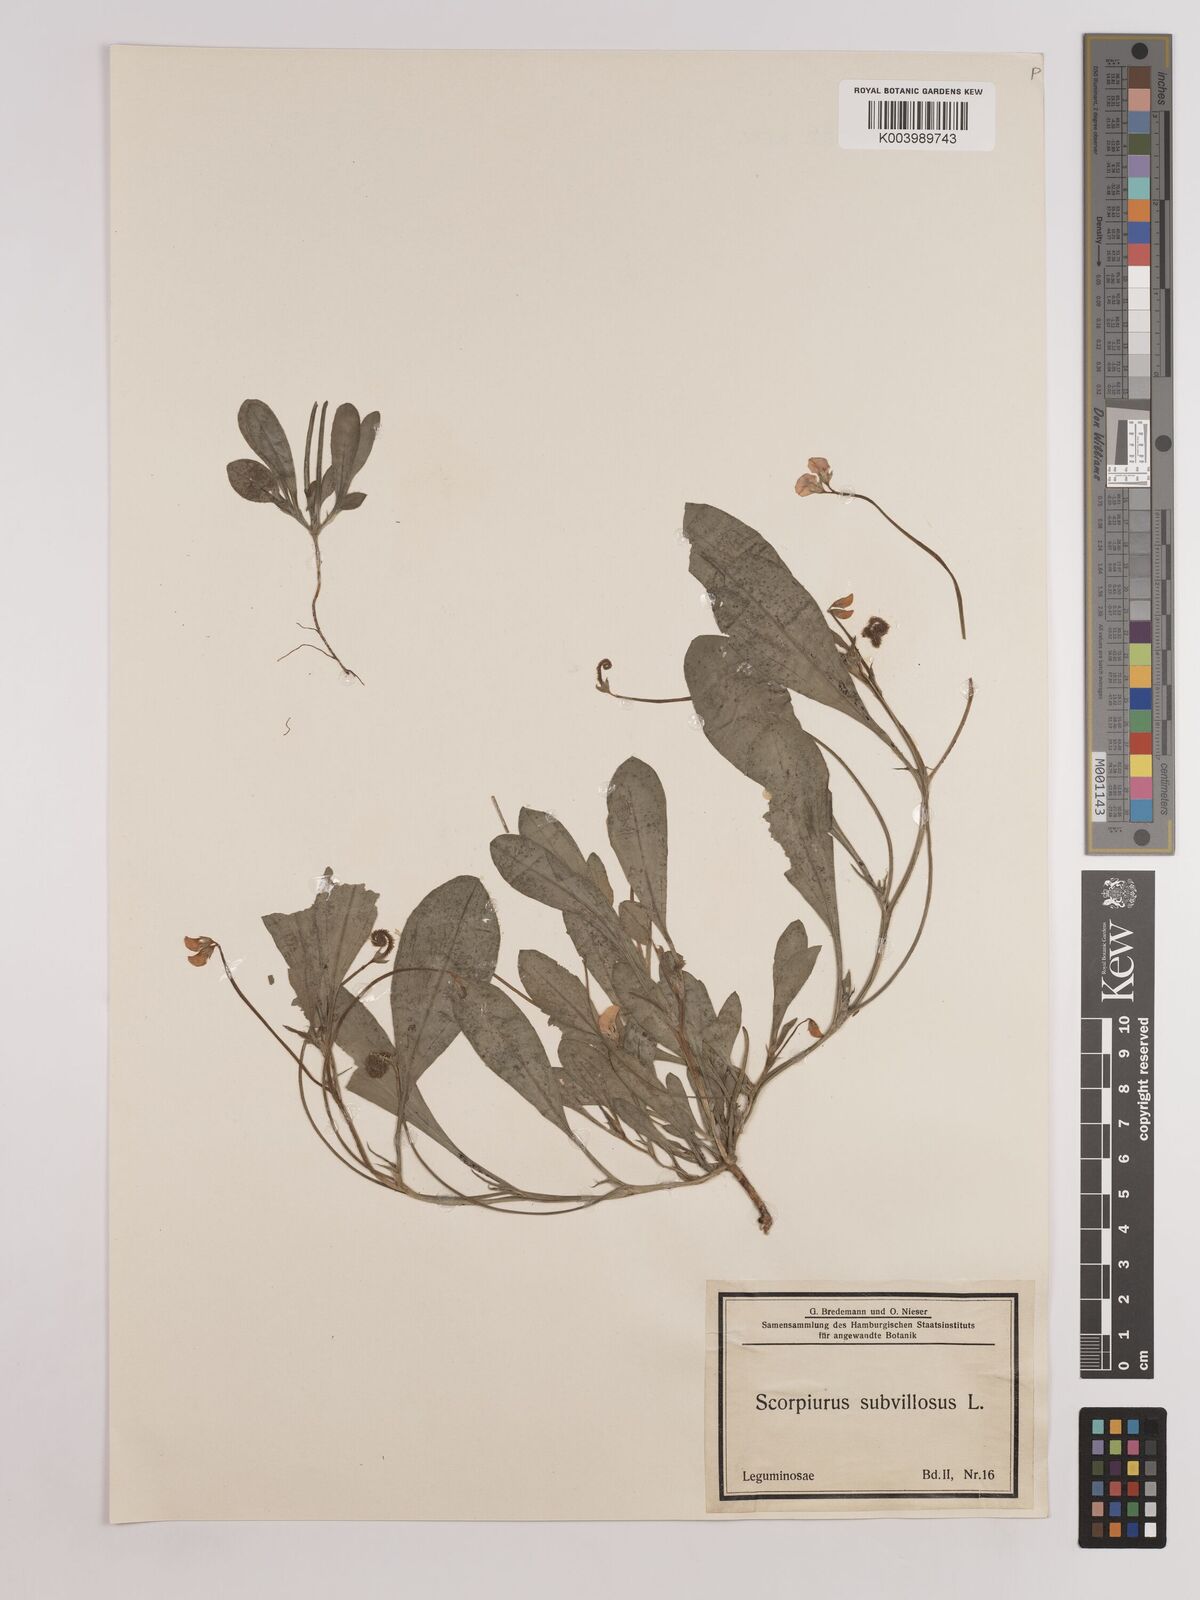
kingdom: Plantae
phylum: Tracheophyta
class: Magnoliopsida
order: Fabales
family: Fabaceae
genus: Scorpiurus
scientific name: Scorpiurus muricatus
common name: Caterpillar-plant
